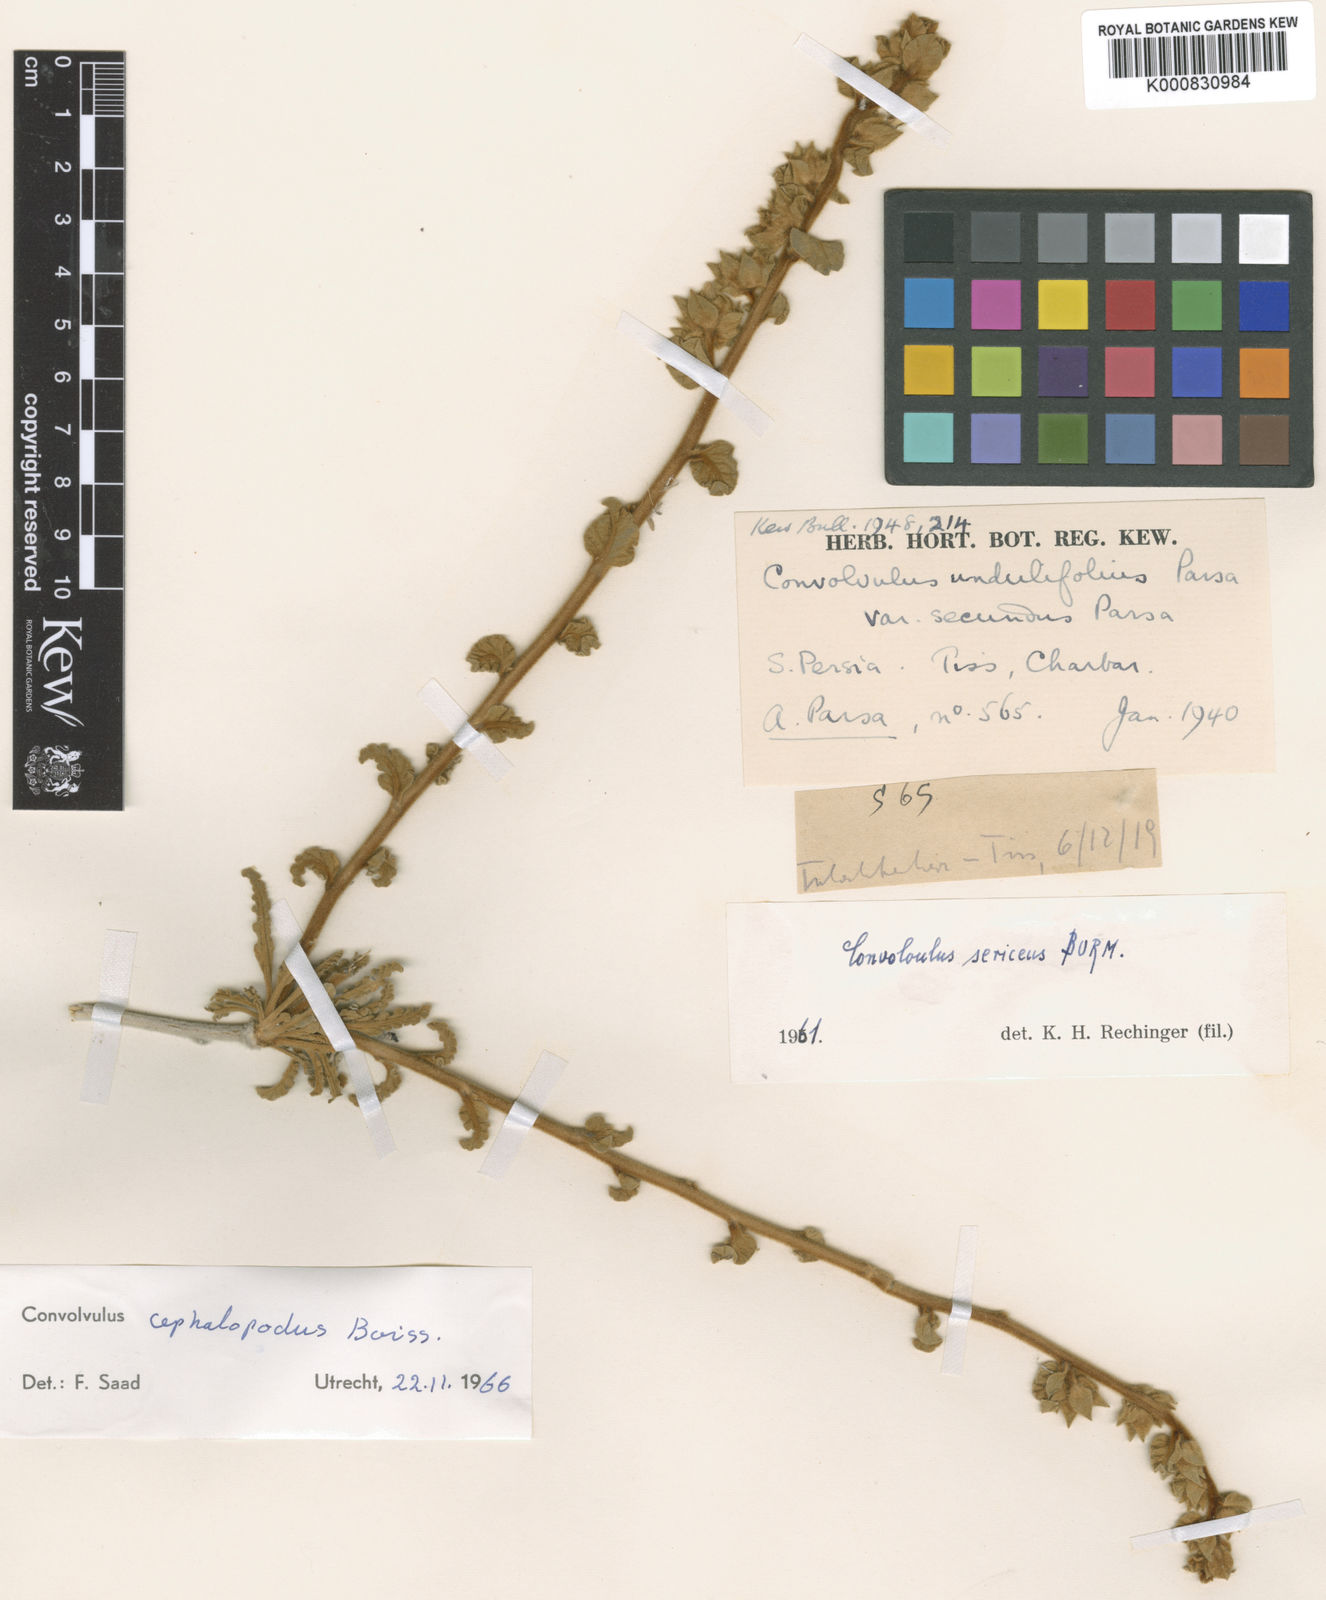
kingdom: Plantae
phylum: Tracheophyta
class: Magnoliopsida
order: Solanales
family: Convolvulaceae
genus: Convolvulus
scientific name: Convolvulus cephalopodus
